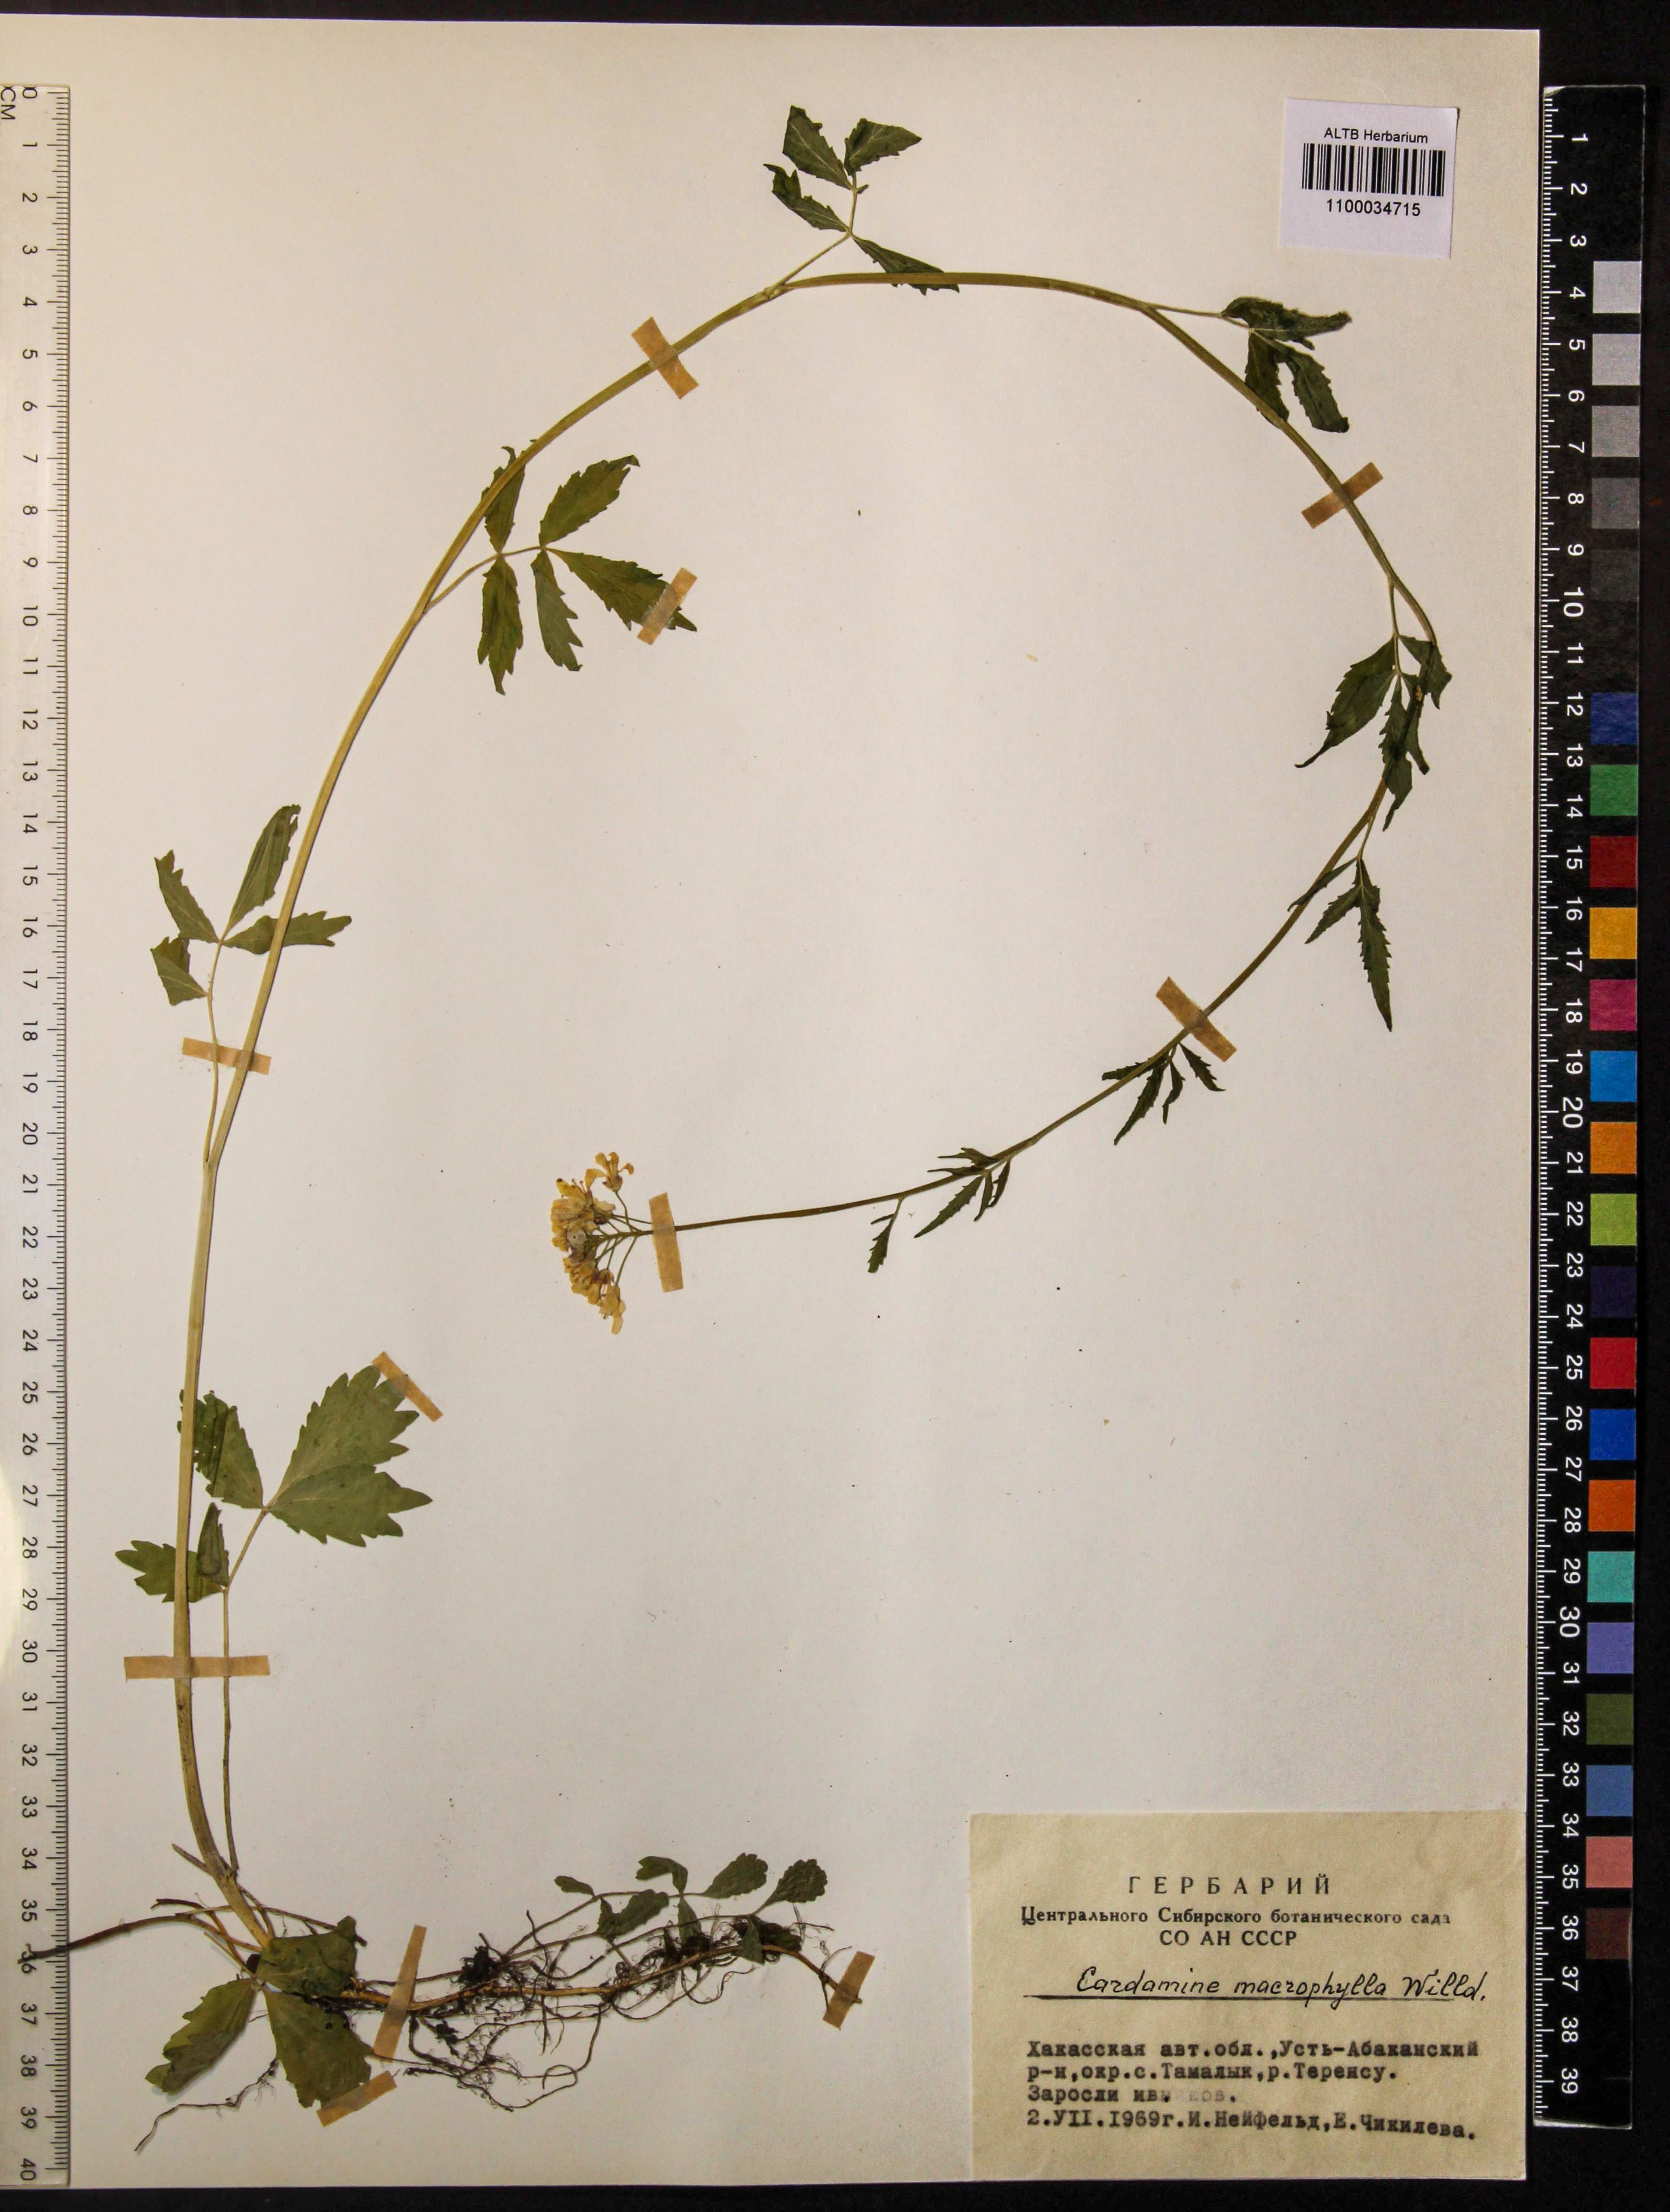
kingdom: Plantae
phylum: Tracheophyta
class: Magnoliopsida
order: Brassicales
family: Brassicaceae
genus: Cardamine
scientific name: Cardamine macrophylla
